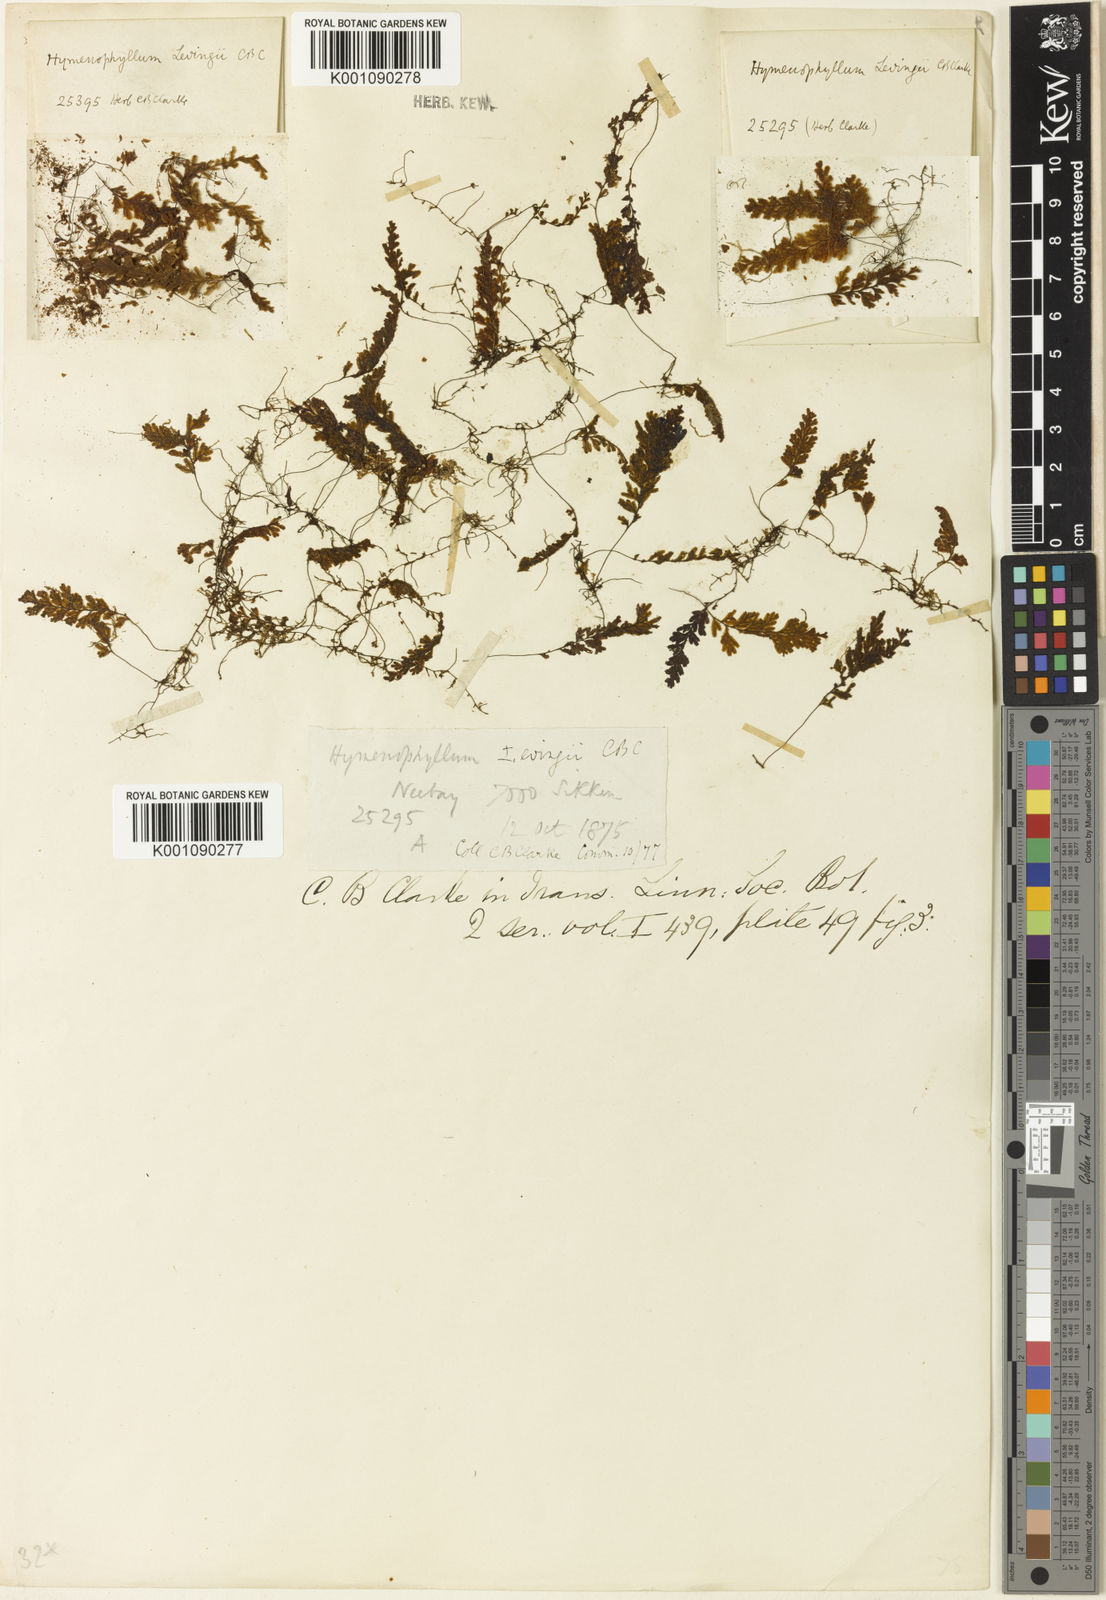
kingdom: Plantae
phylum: Tracheophyta
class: Polypodiopsida
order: Hymenophyllales
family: Hymenophyllaceae
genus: Hymenophyllum
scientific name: Hymenophyllum levingei
